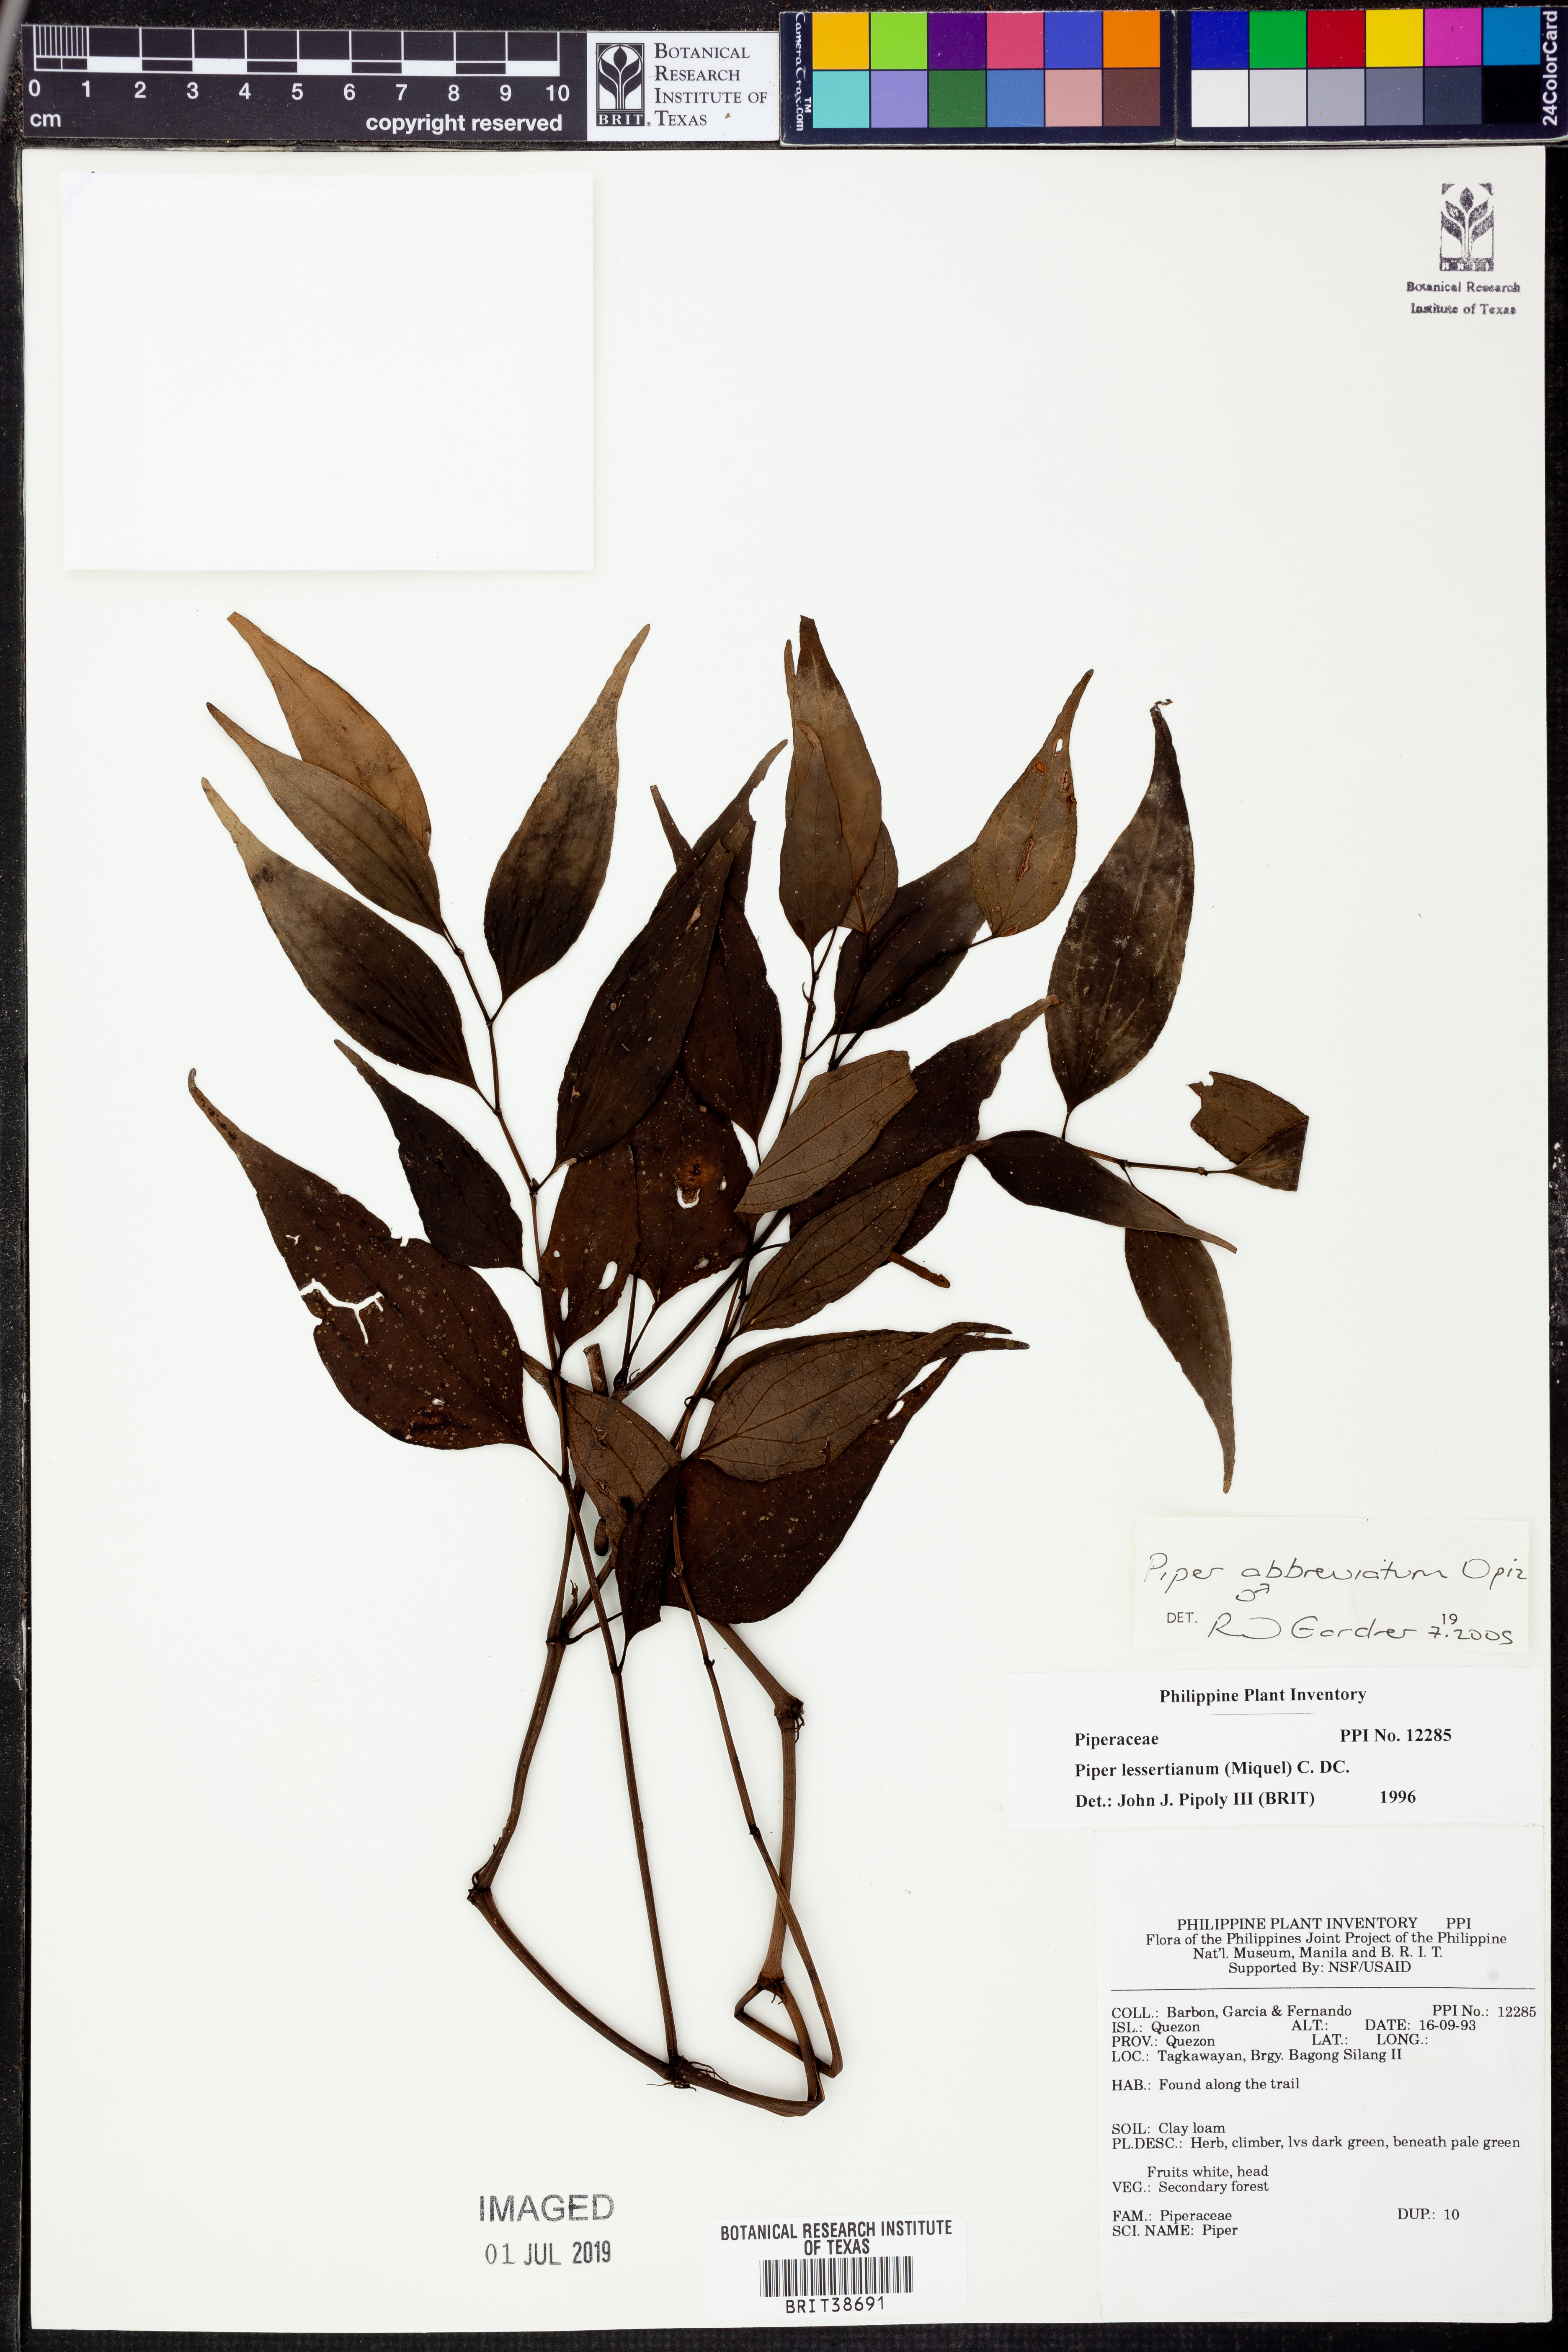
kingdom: Plantae
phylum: Tracheophyta
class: Magnoliopsida
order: Piperales
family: Piperaceae
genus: Piper
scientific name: Piper abbreviatum
